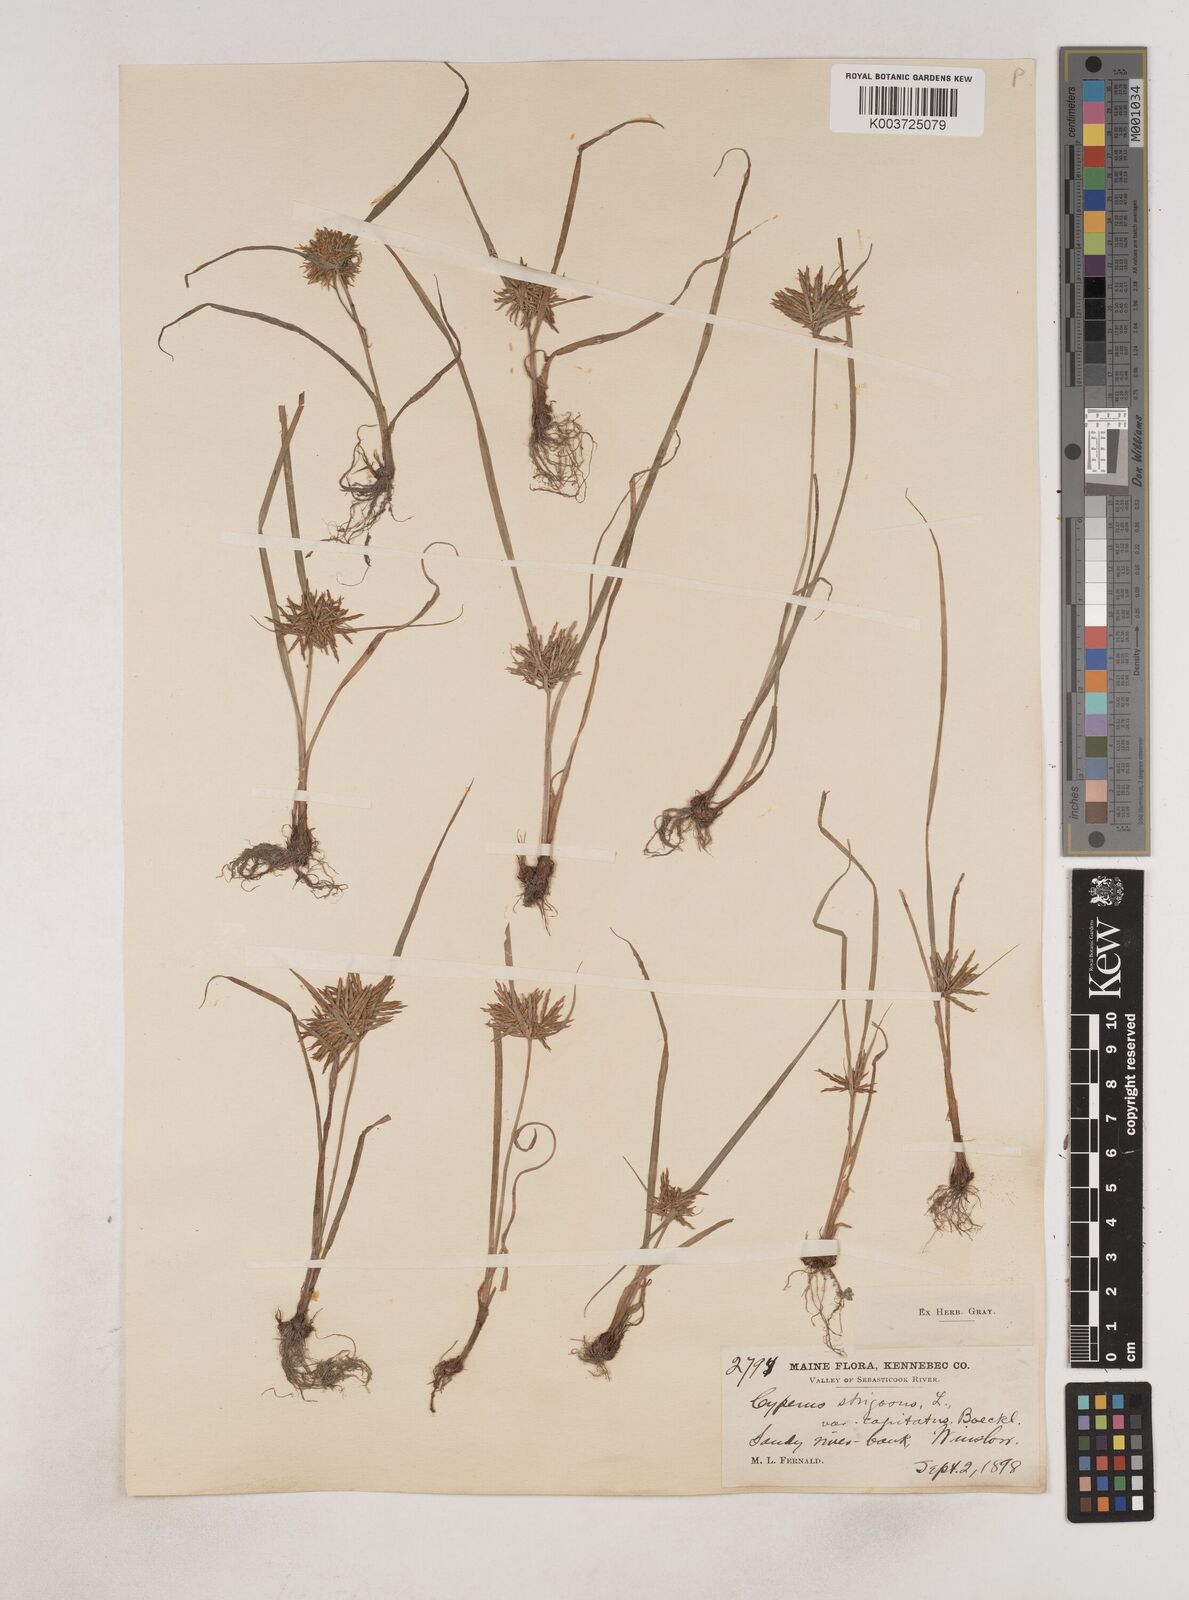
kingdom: Plantae
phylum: Tracheophyta
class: Liliopsida
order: Poales
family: Cyperaceae
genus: Cyperus
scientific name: Cyperus strigosus
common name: False nutsedge
